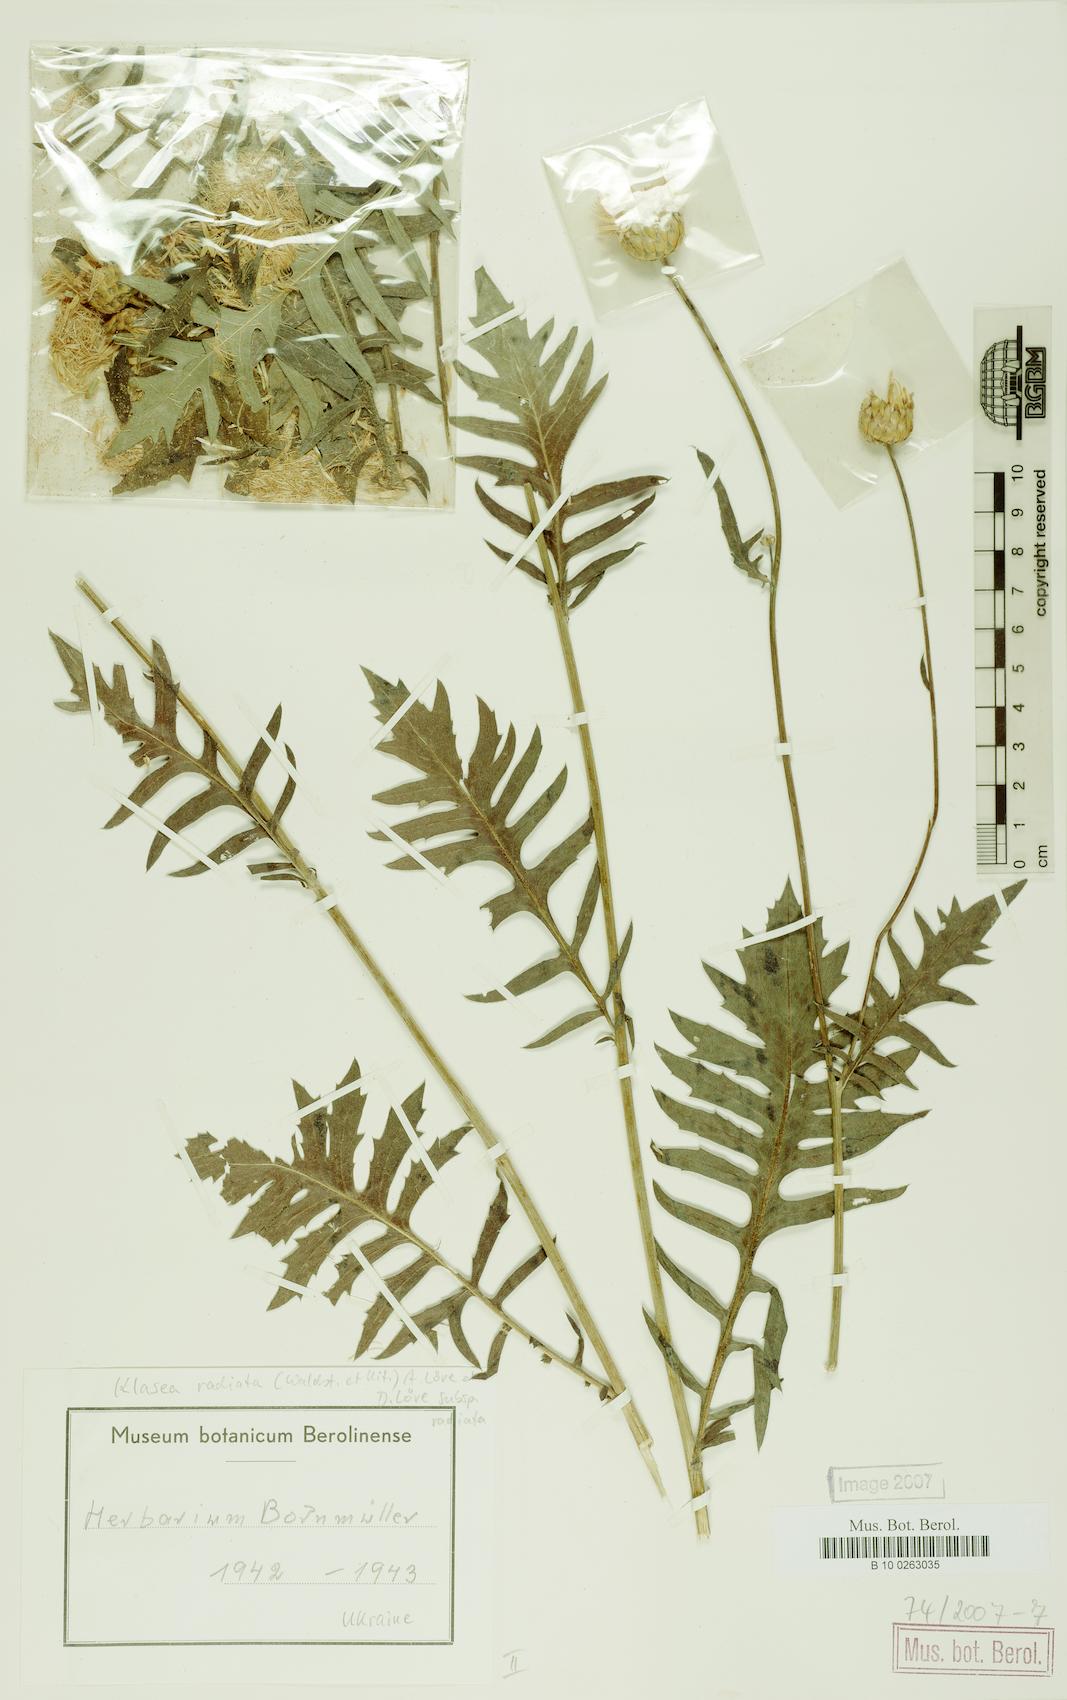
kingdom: Plantae
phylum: Tracheophyta
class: Magnoliopsida
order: Asterales
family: Asteraceae
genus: Klasea
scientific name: Klasea radiata
